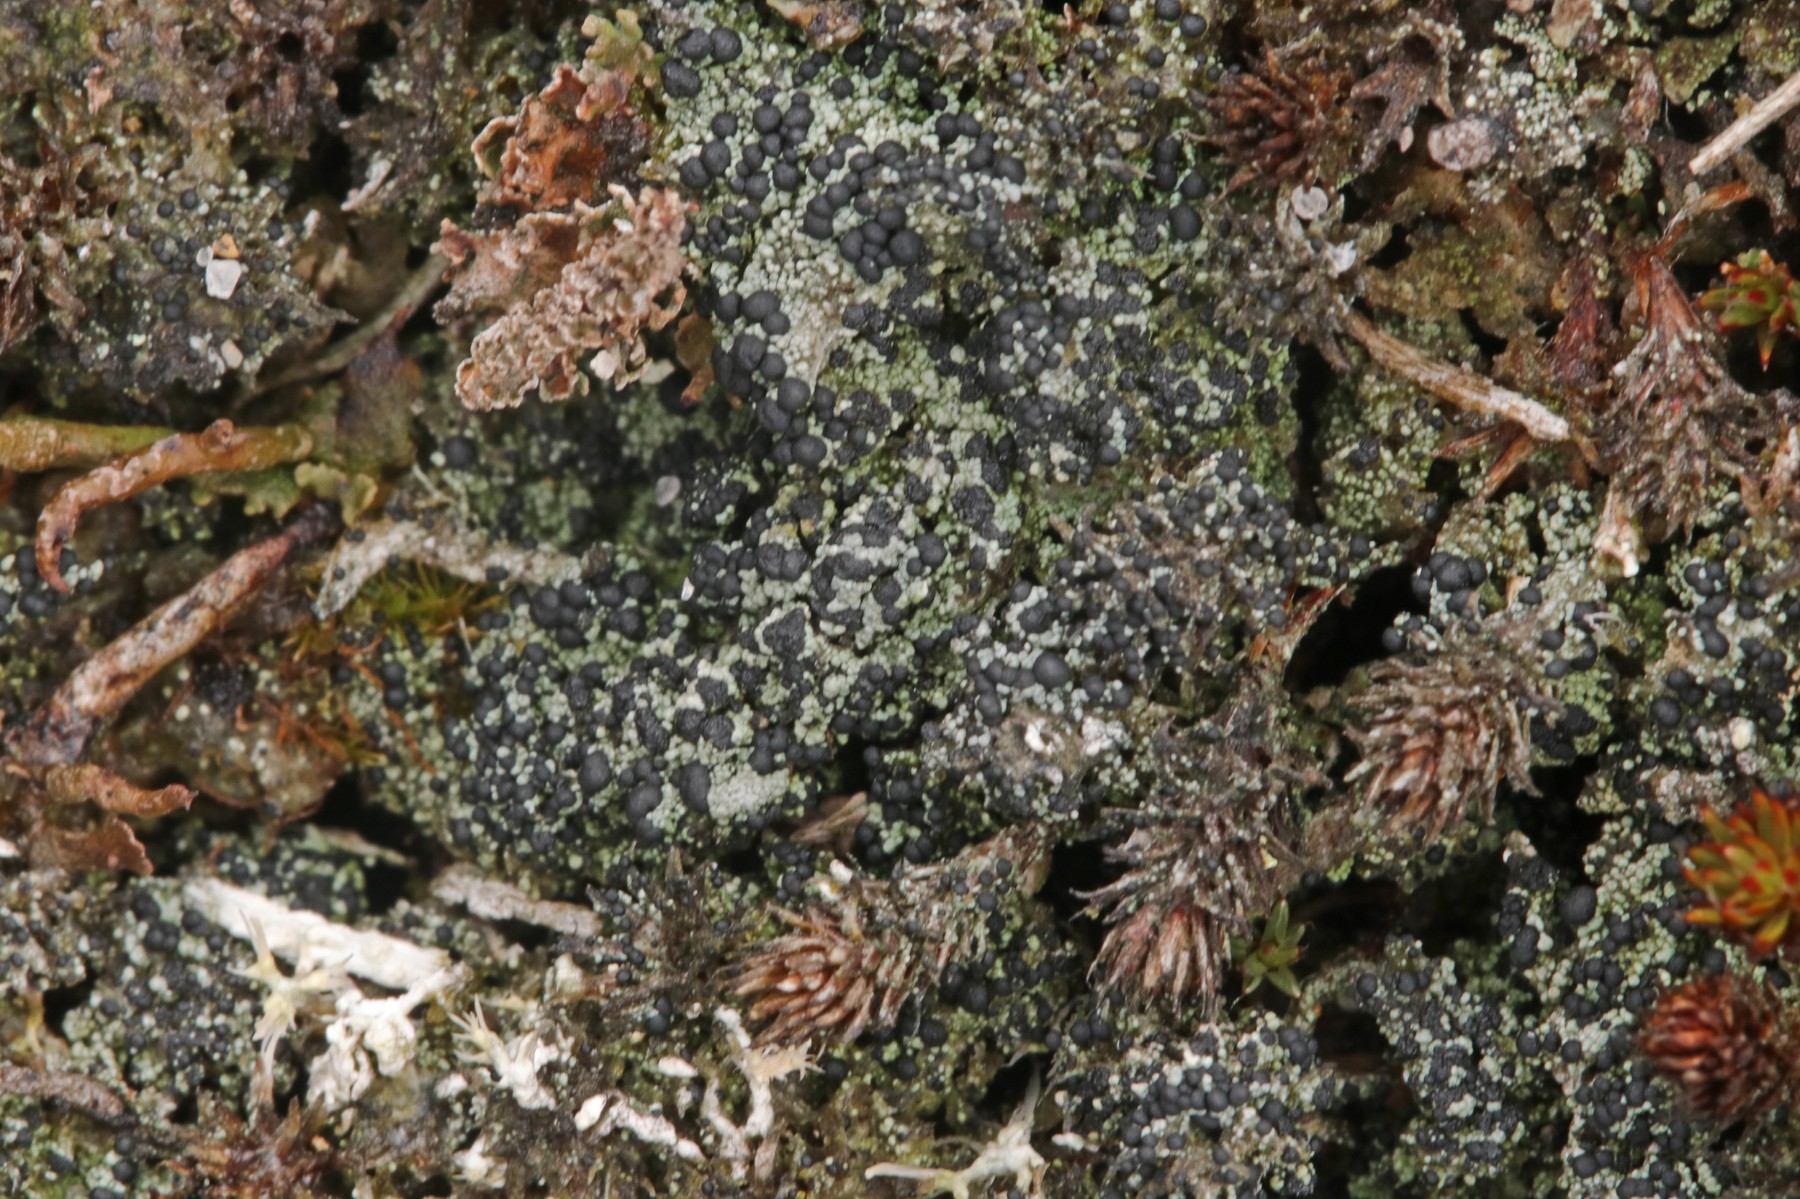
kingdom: Fungi
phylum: Ascomycota
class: Lecanoromycetes
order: Lecanorales
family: Byssolomataceae
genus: Micarea
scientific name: Micarea lignaria
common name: tørve-knaplav
